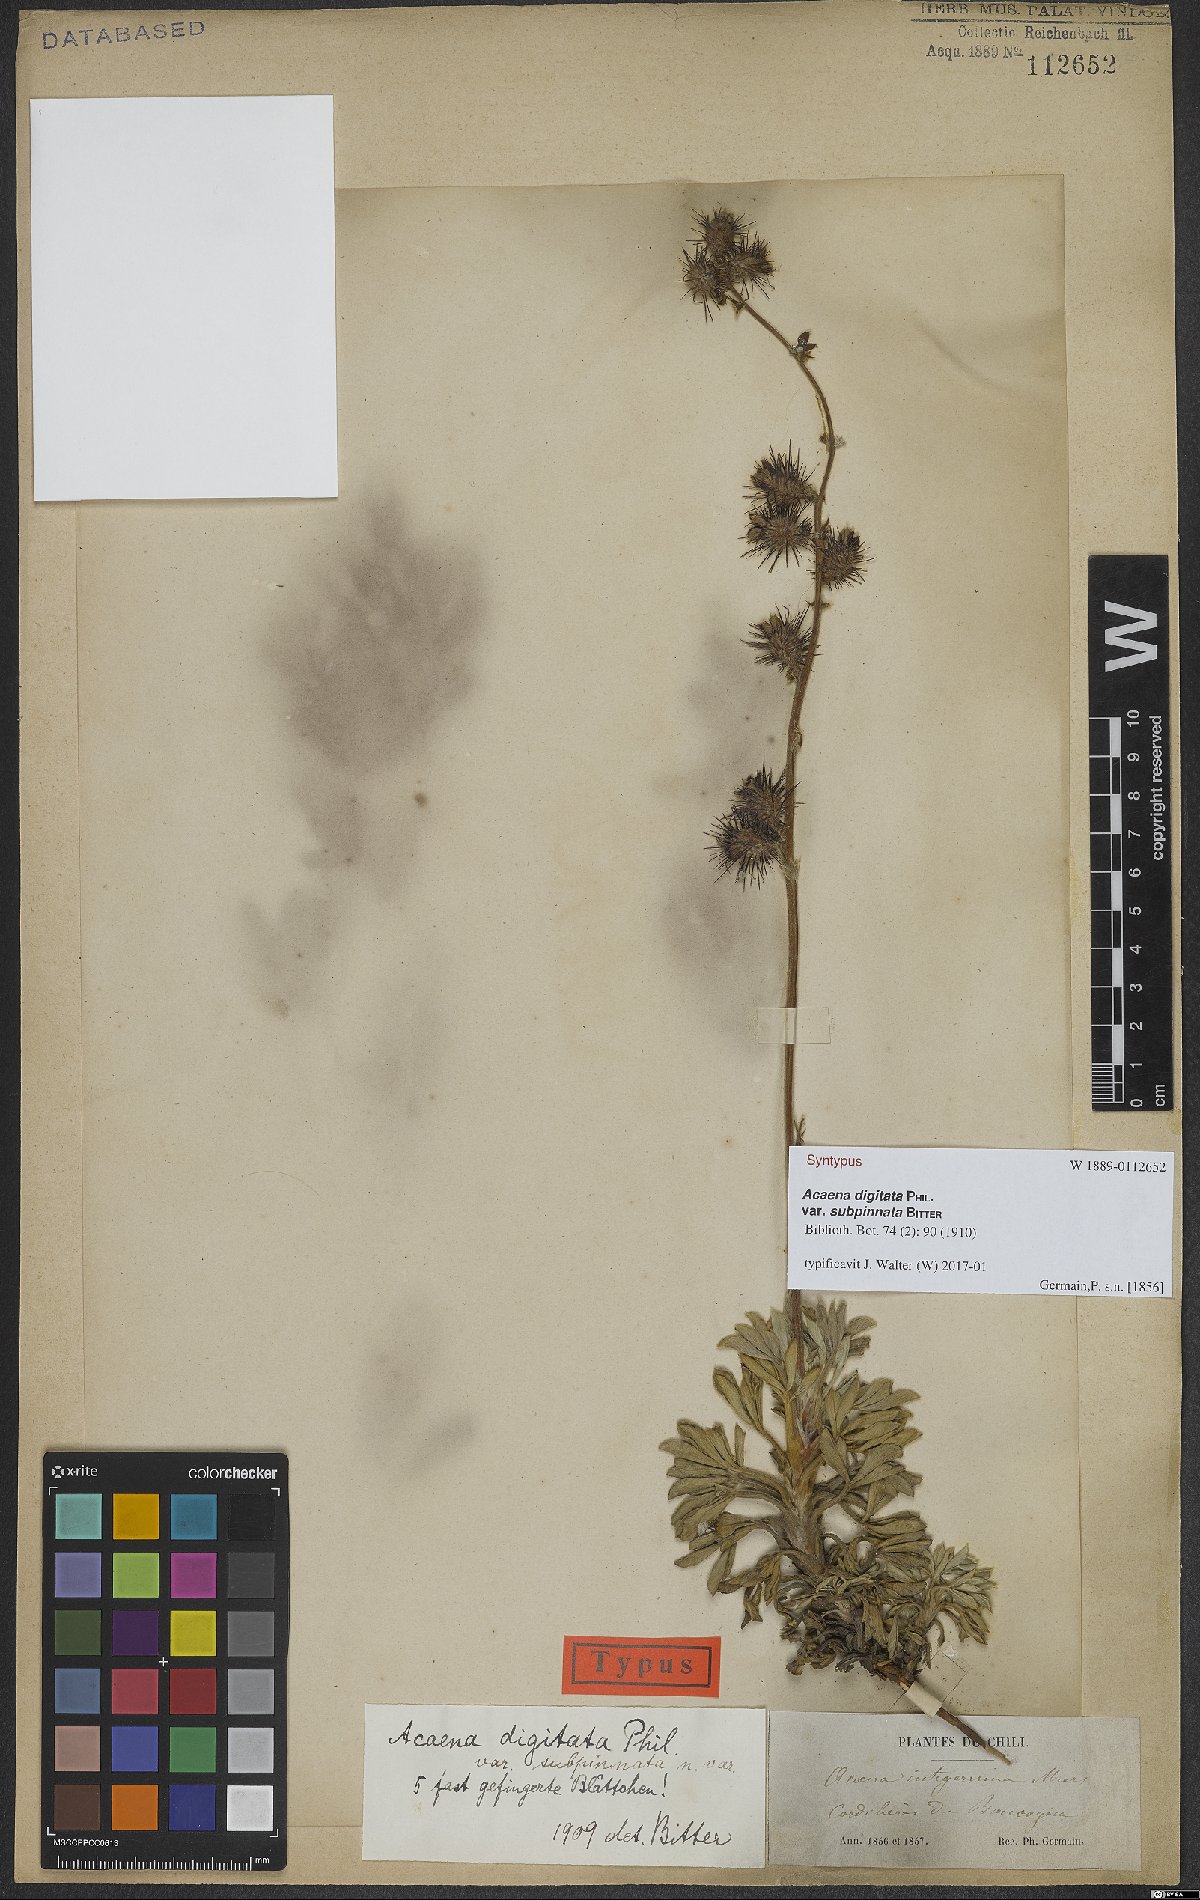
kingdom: Plantae
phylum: Tracheophyta
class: Magnoliopsida
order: Rosales
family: Rosaceae
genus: Acaena
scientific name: Acaena alpina
